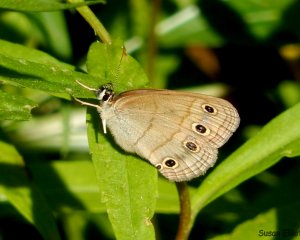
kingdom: Animalia
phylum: Arthropoda
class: Insecta
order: Lepidoptera
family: Nymphalidae
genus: Euptychia
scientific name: Euptychia cymela
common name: Little Wood Satyr
